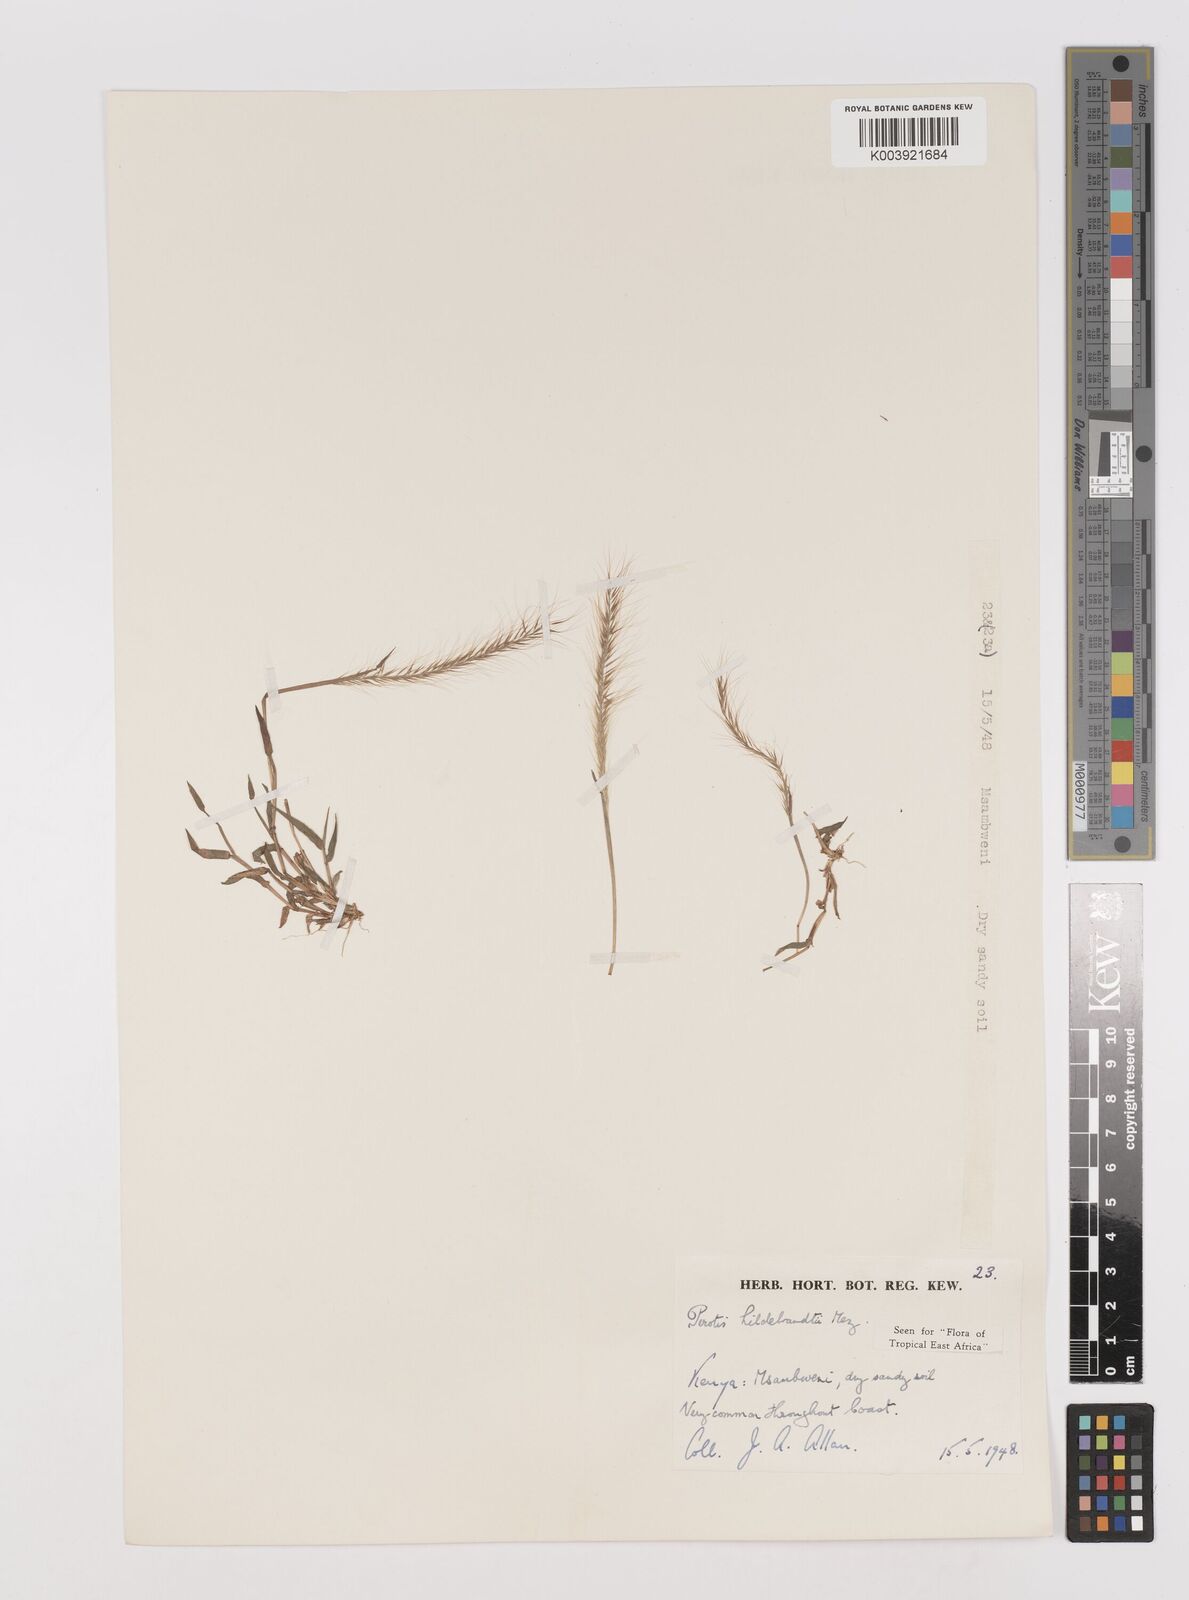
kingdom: Plantae
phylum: Tracheophyta
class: Liliopsida
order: Poales
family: Poaceae
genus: Perotis
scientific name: Perotis hildebrandtii
